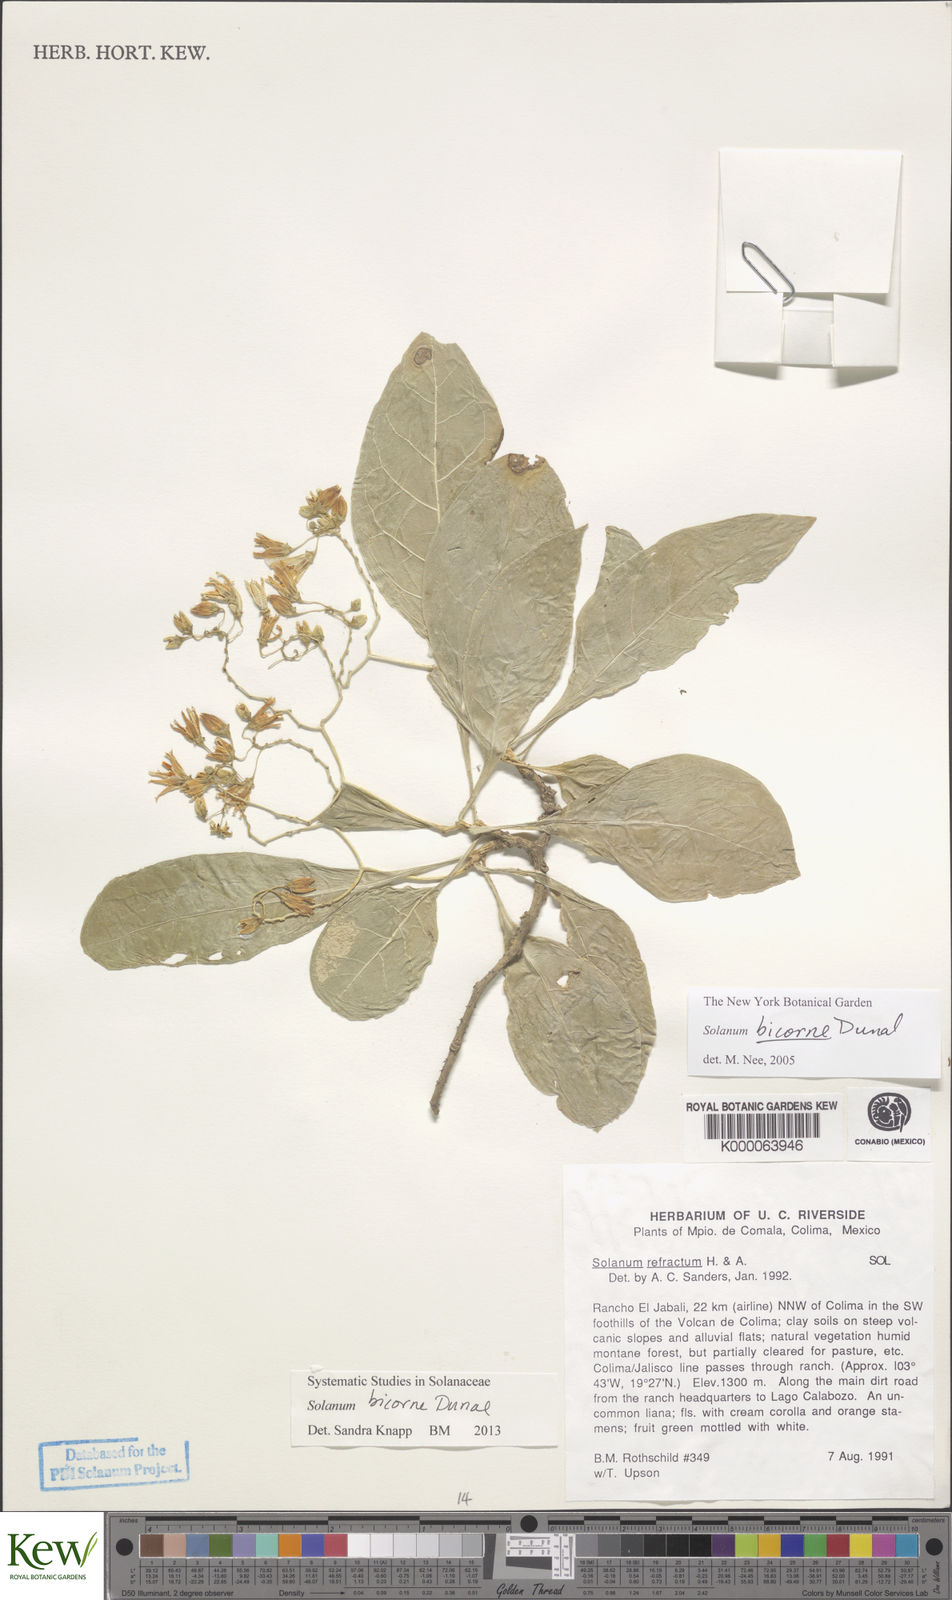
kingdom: Plantae
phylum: Tracheophyta
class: Magnoliopsida
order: Solanales
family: Solanaceae
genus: Solanum
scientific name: Solanum refractum
